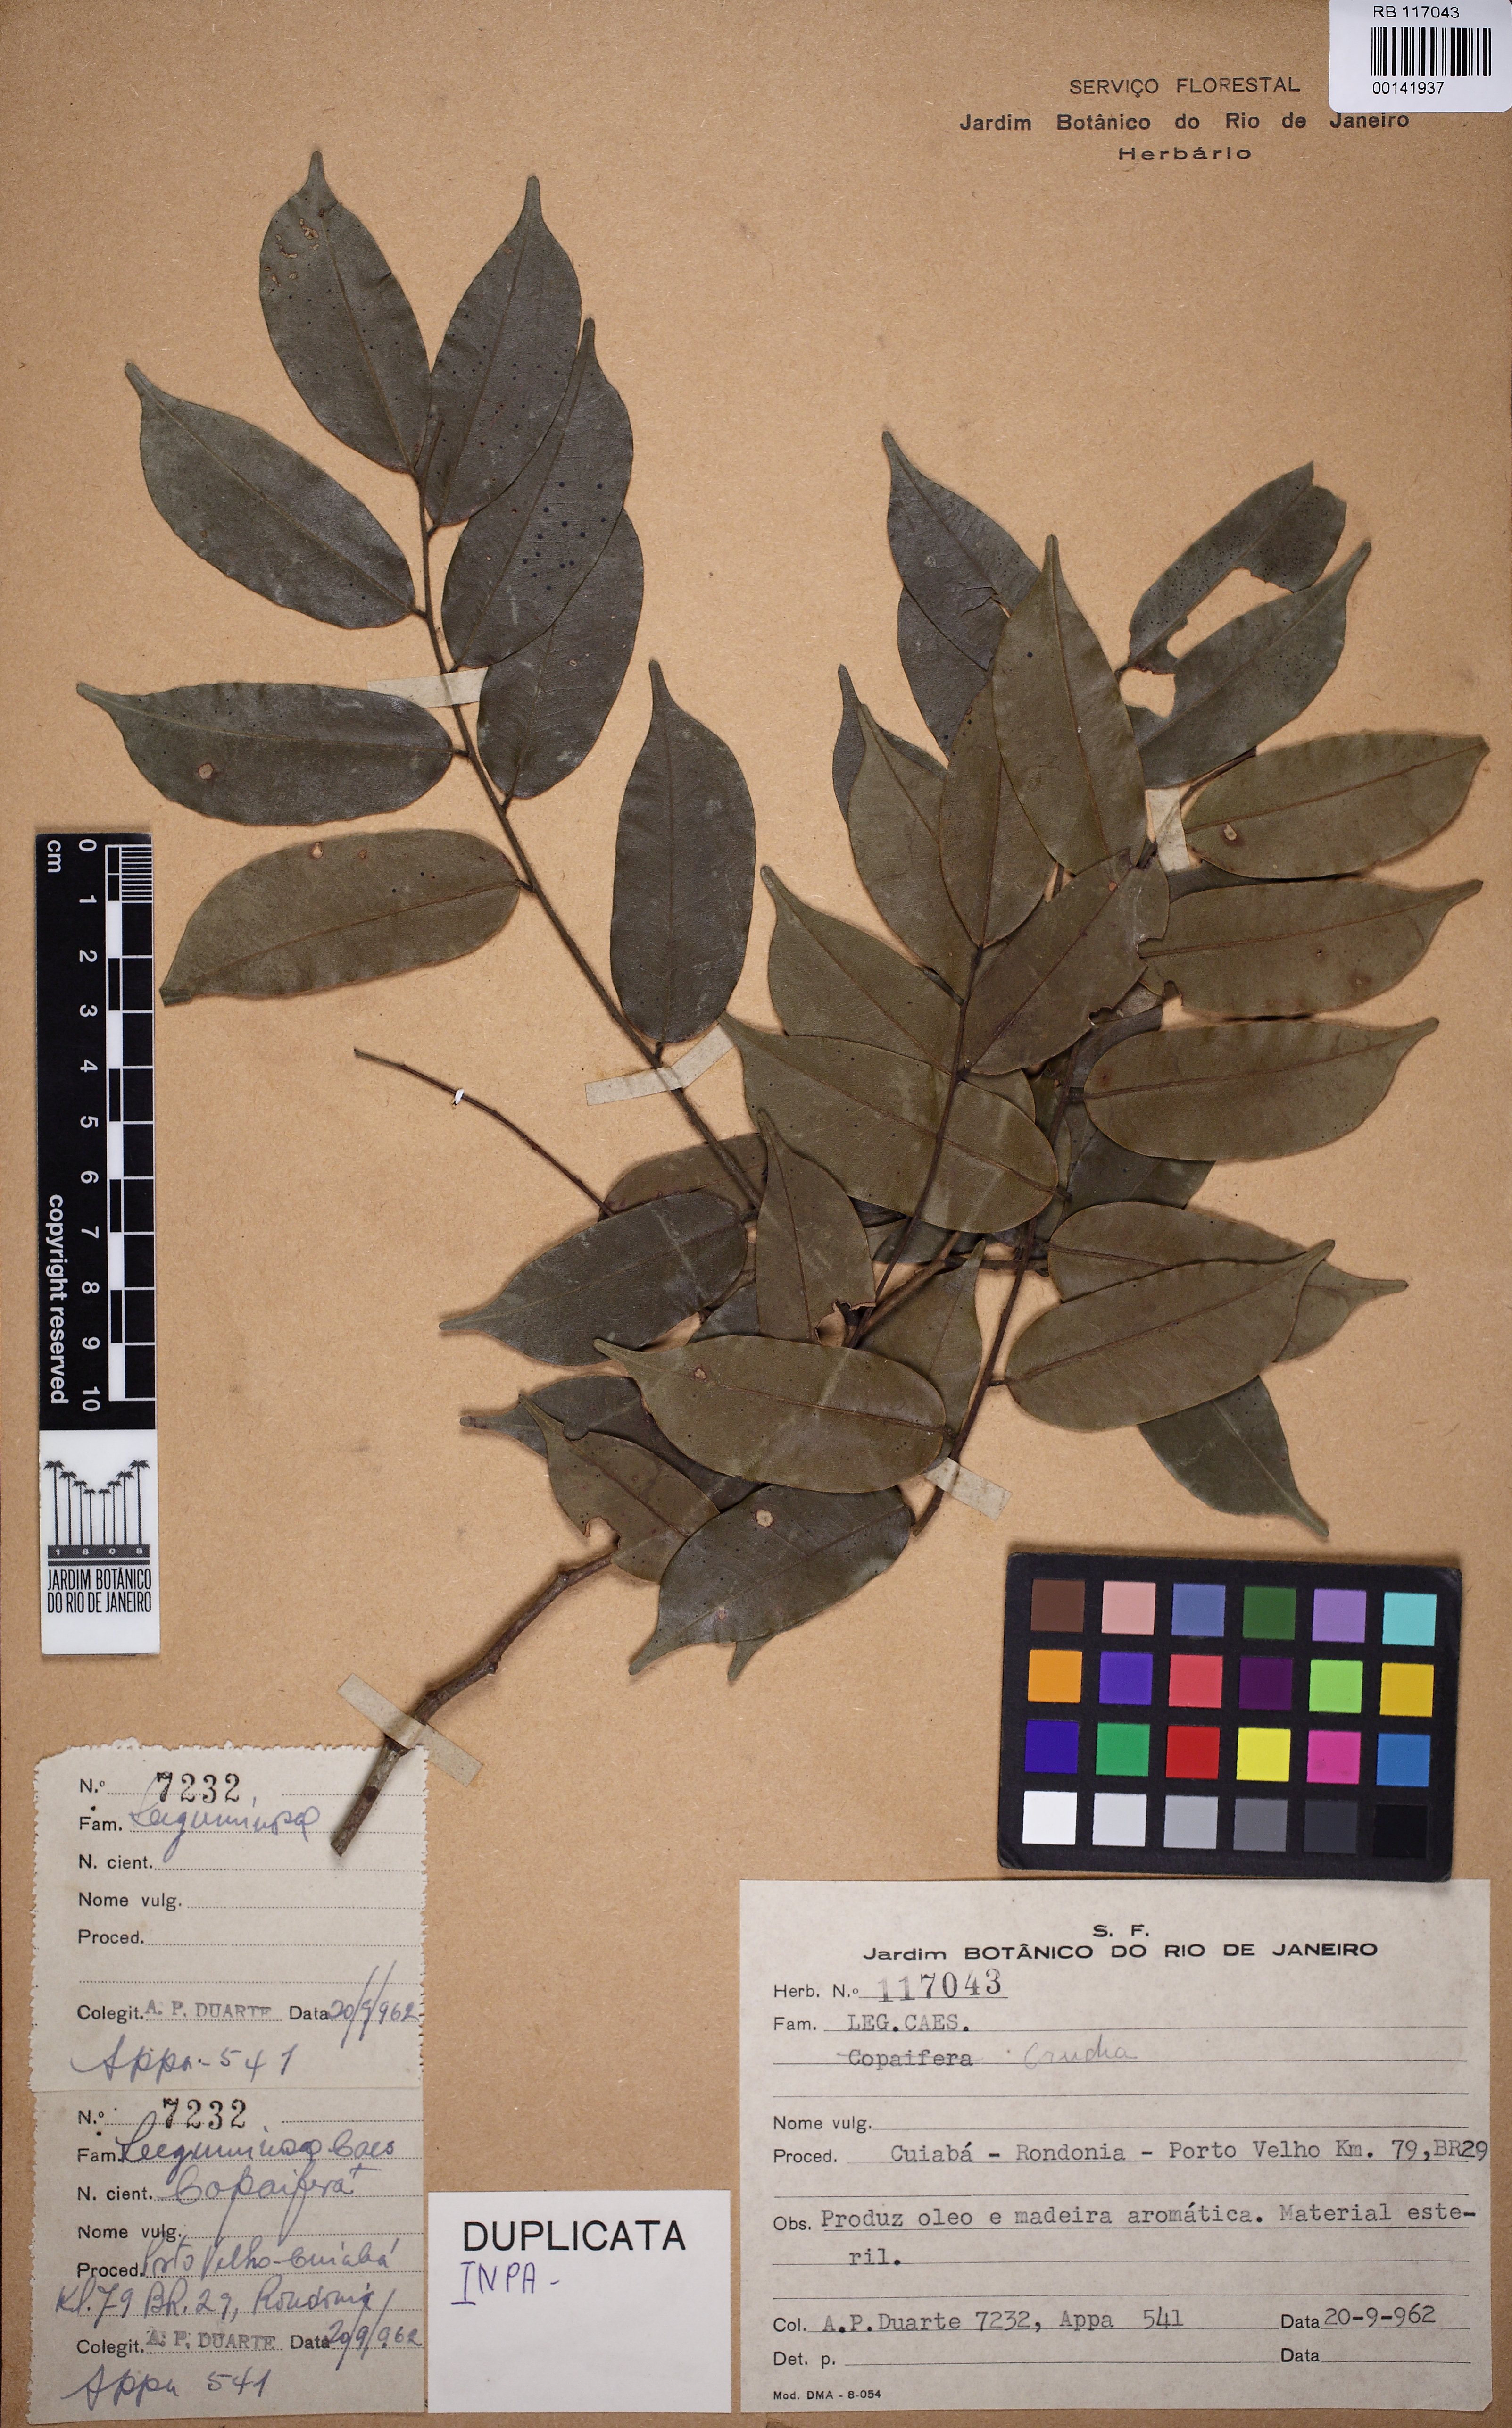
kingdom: Plantae
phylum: Tracheophyta
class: Magnoliopsida
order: Fabales
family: Fabaceae
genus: Crudia
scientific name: Crudia spicata
